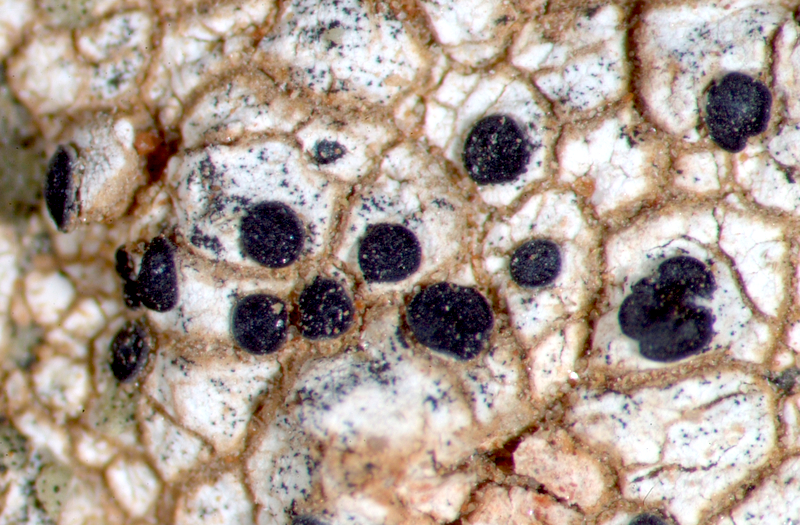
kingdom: Fungi
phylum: Ascomycota
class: Lecanoromycetes
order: Caliciales
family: Caliciaceae
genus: Buellia
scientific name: Buellia
